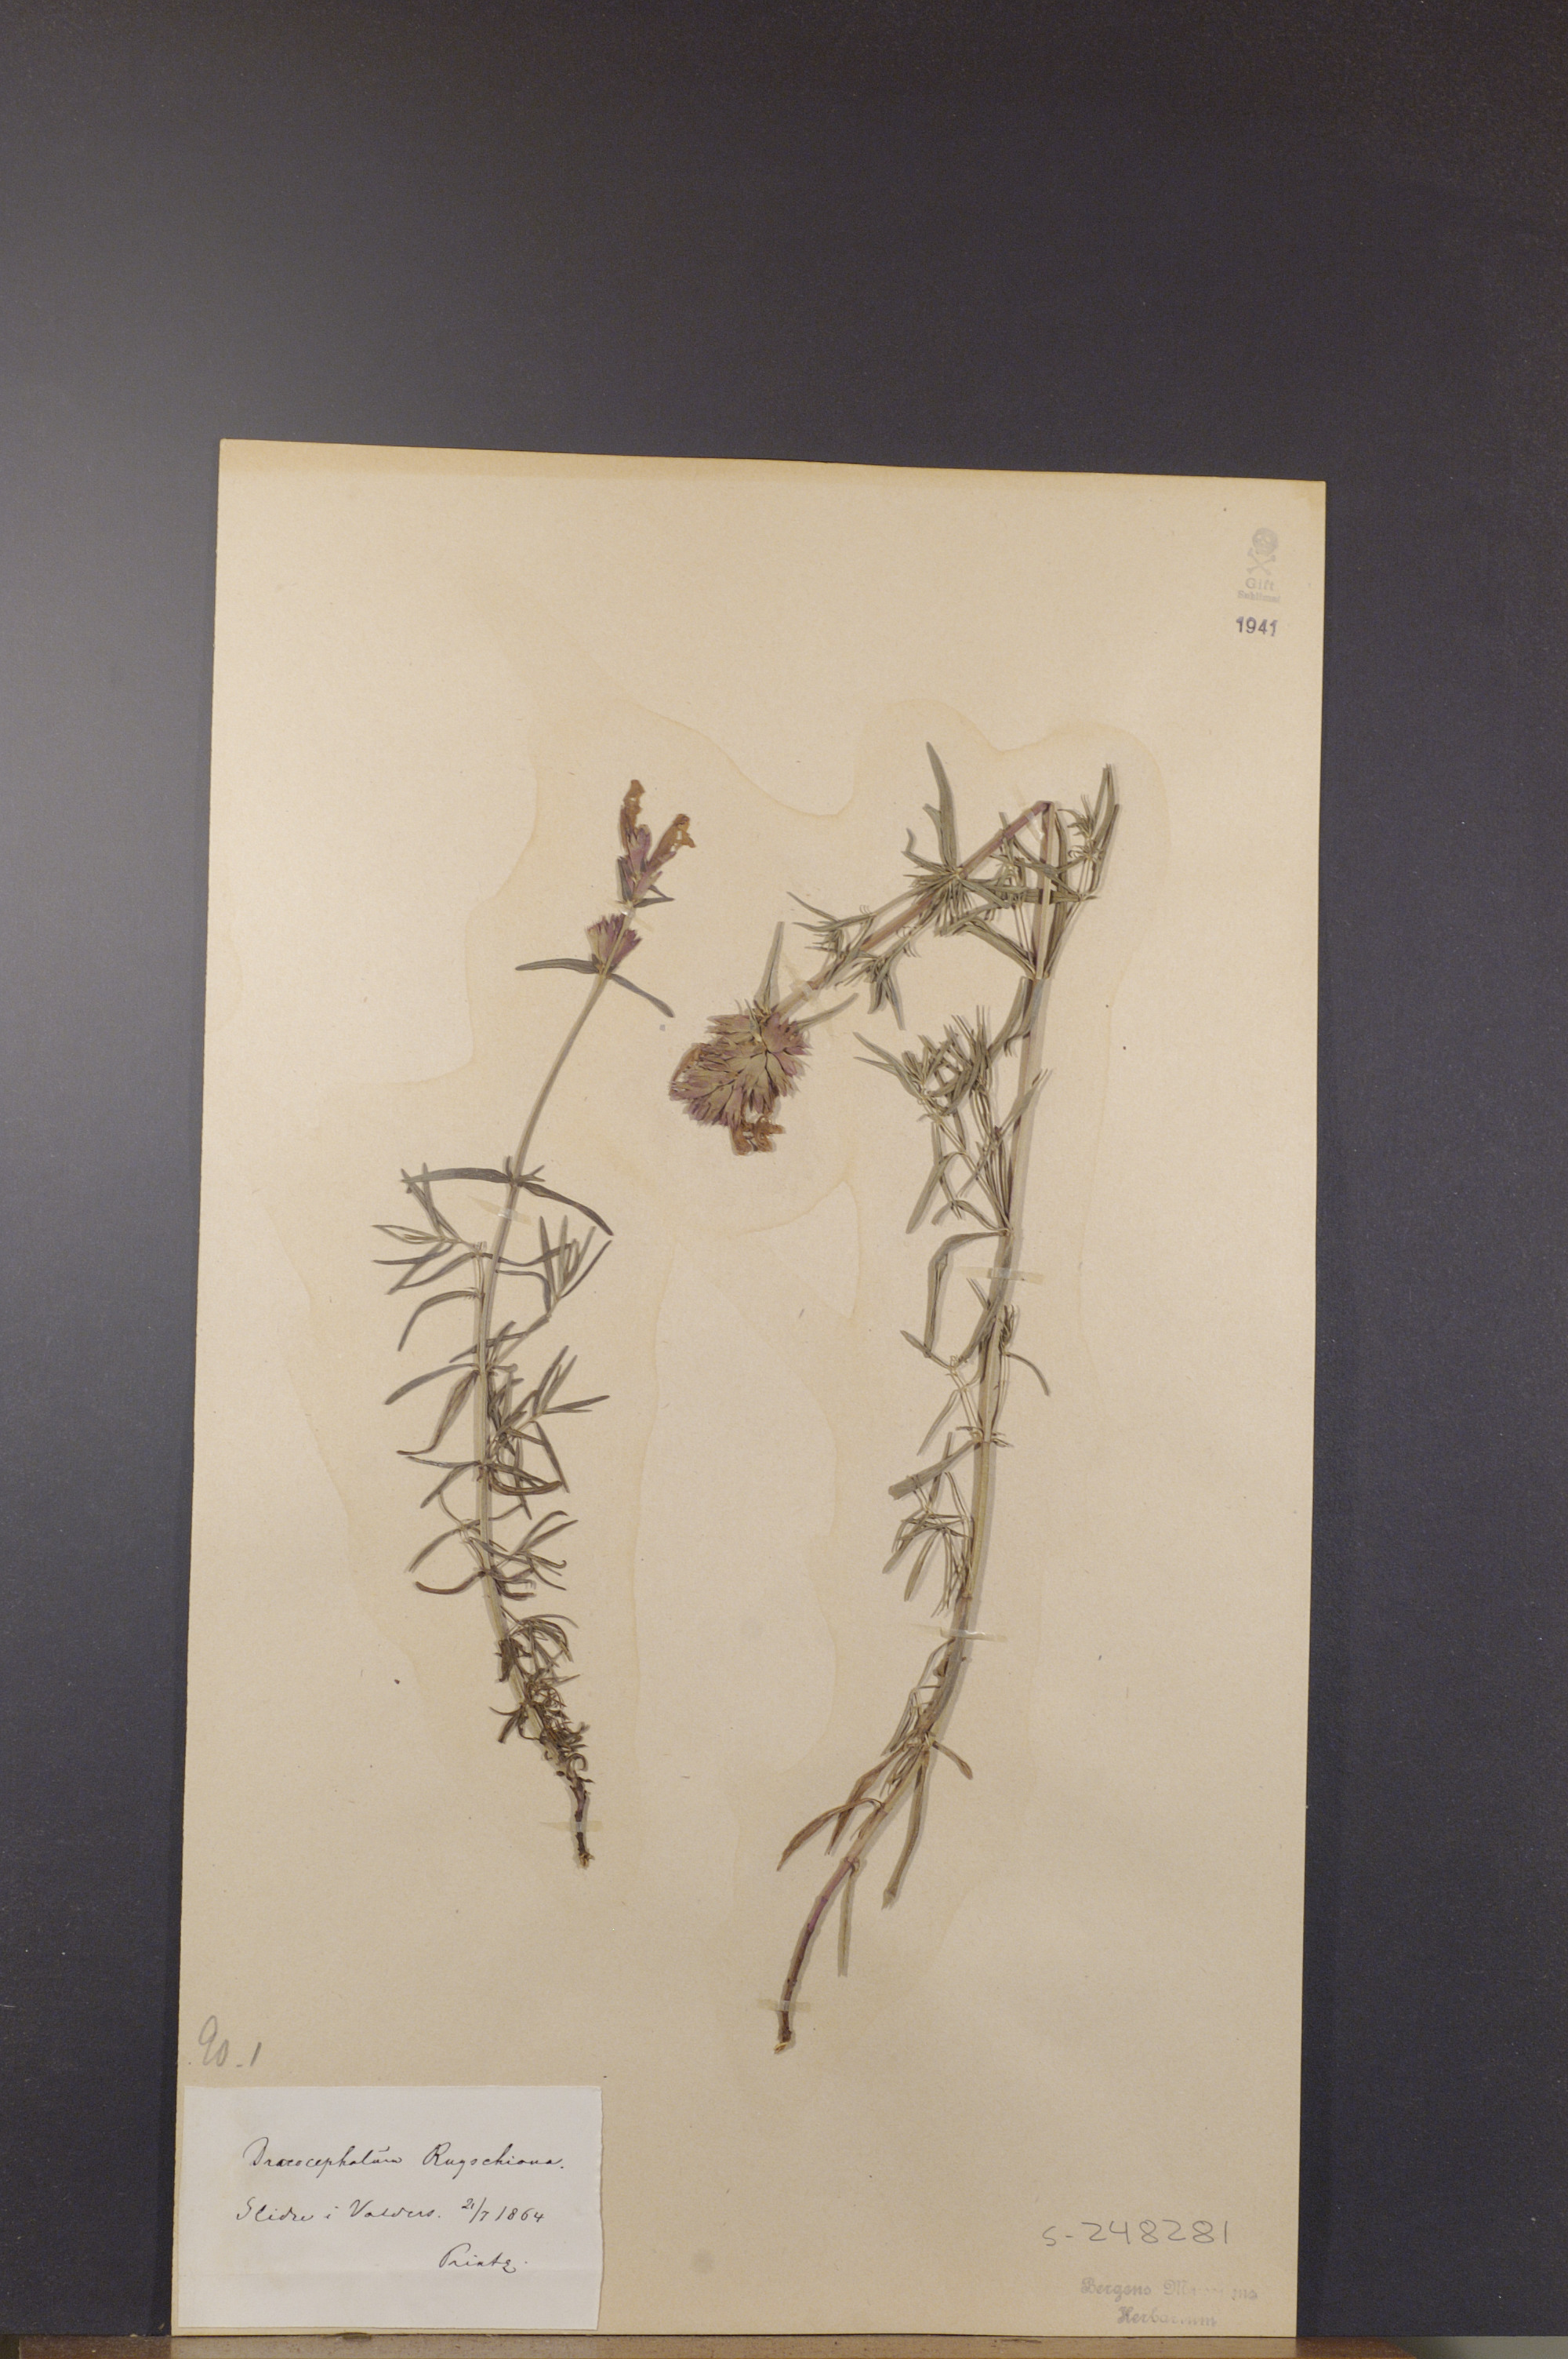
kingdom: Plantae
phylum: Tracheophyta
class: Magnoliopsida
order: Lamiales
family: Lamiaceae
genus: Dracocephalum
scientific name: Dracocephalum ruyschiana
